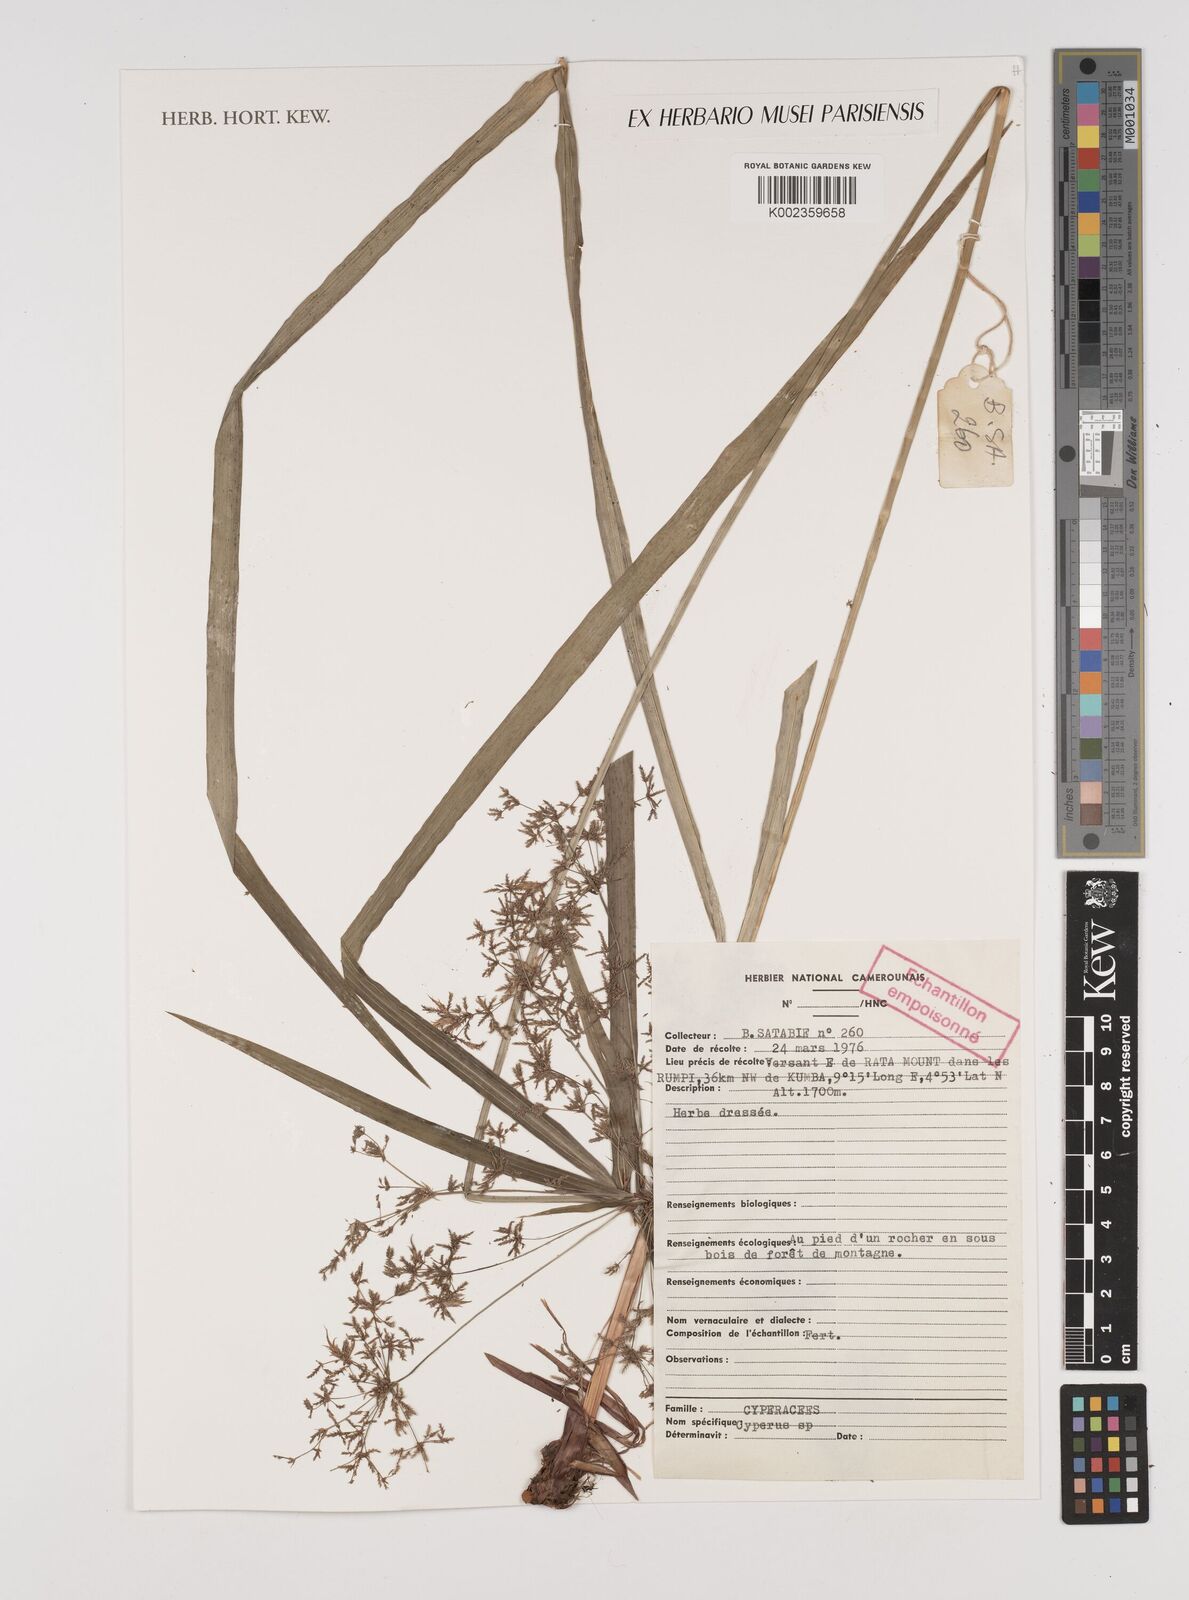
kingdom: Plantae
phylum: Tracheophyta
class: Liliopsida
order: Poales
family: Cyperaceae
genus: Cyperus
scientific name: Cyperus
